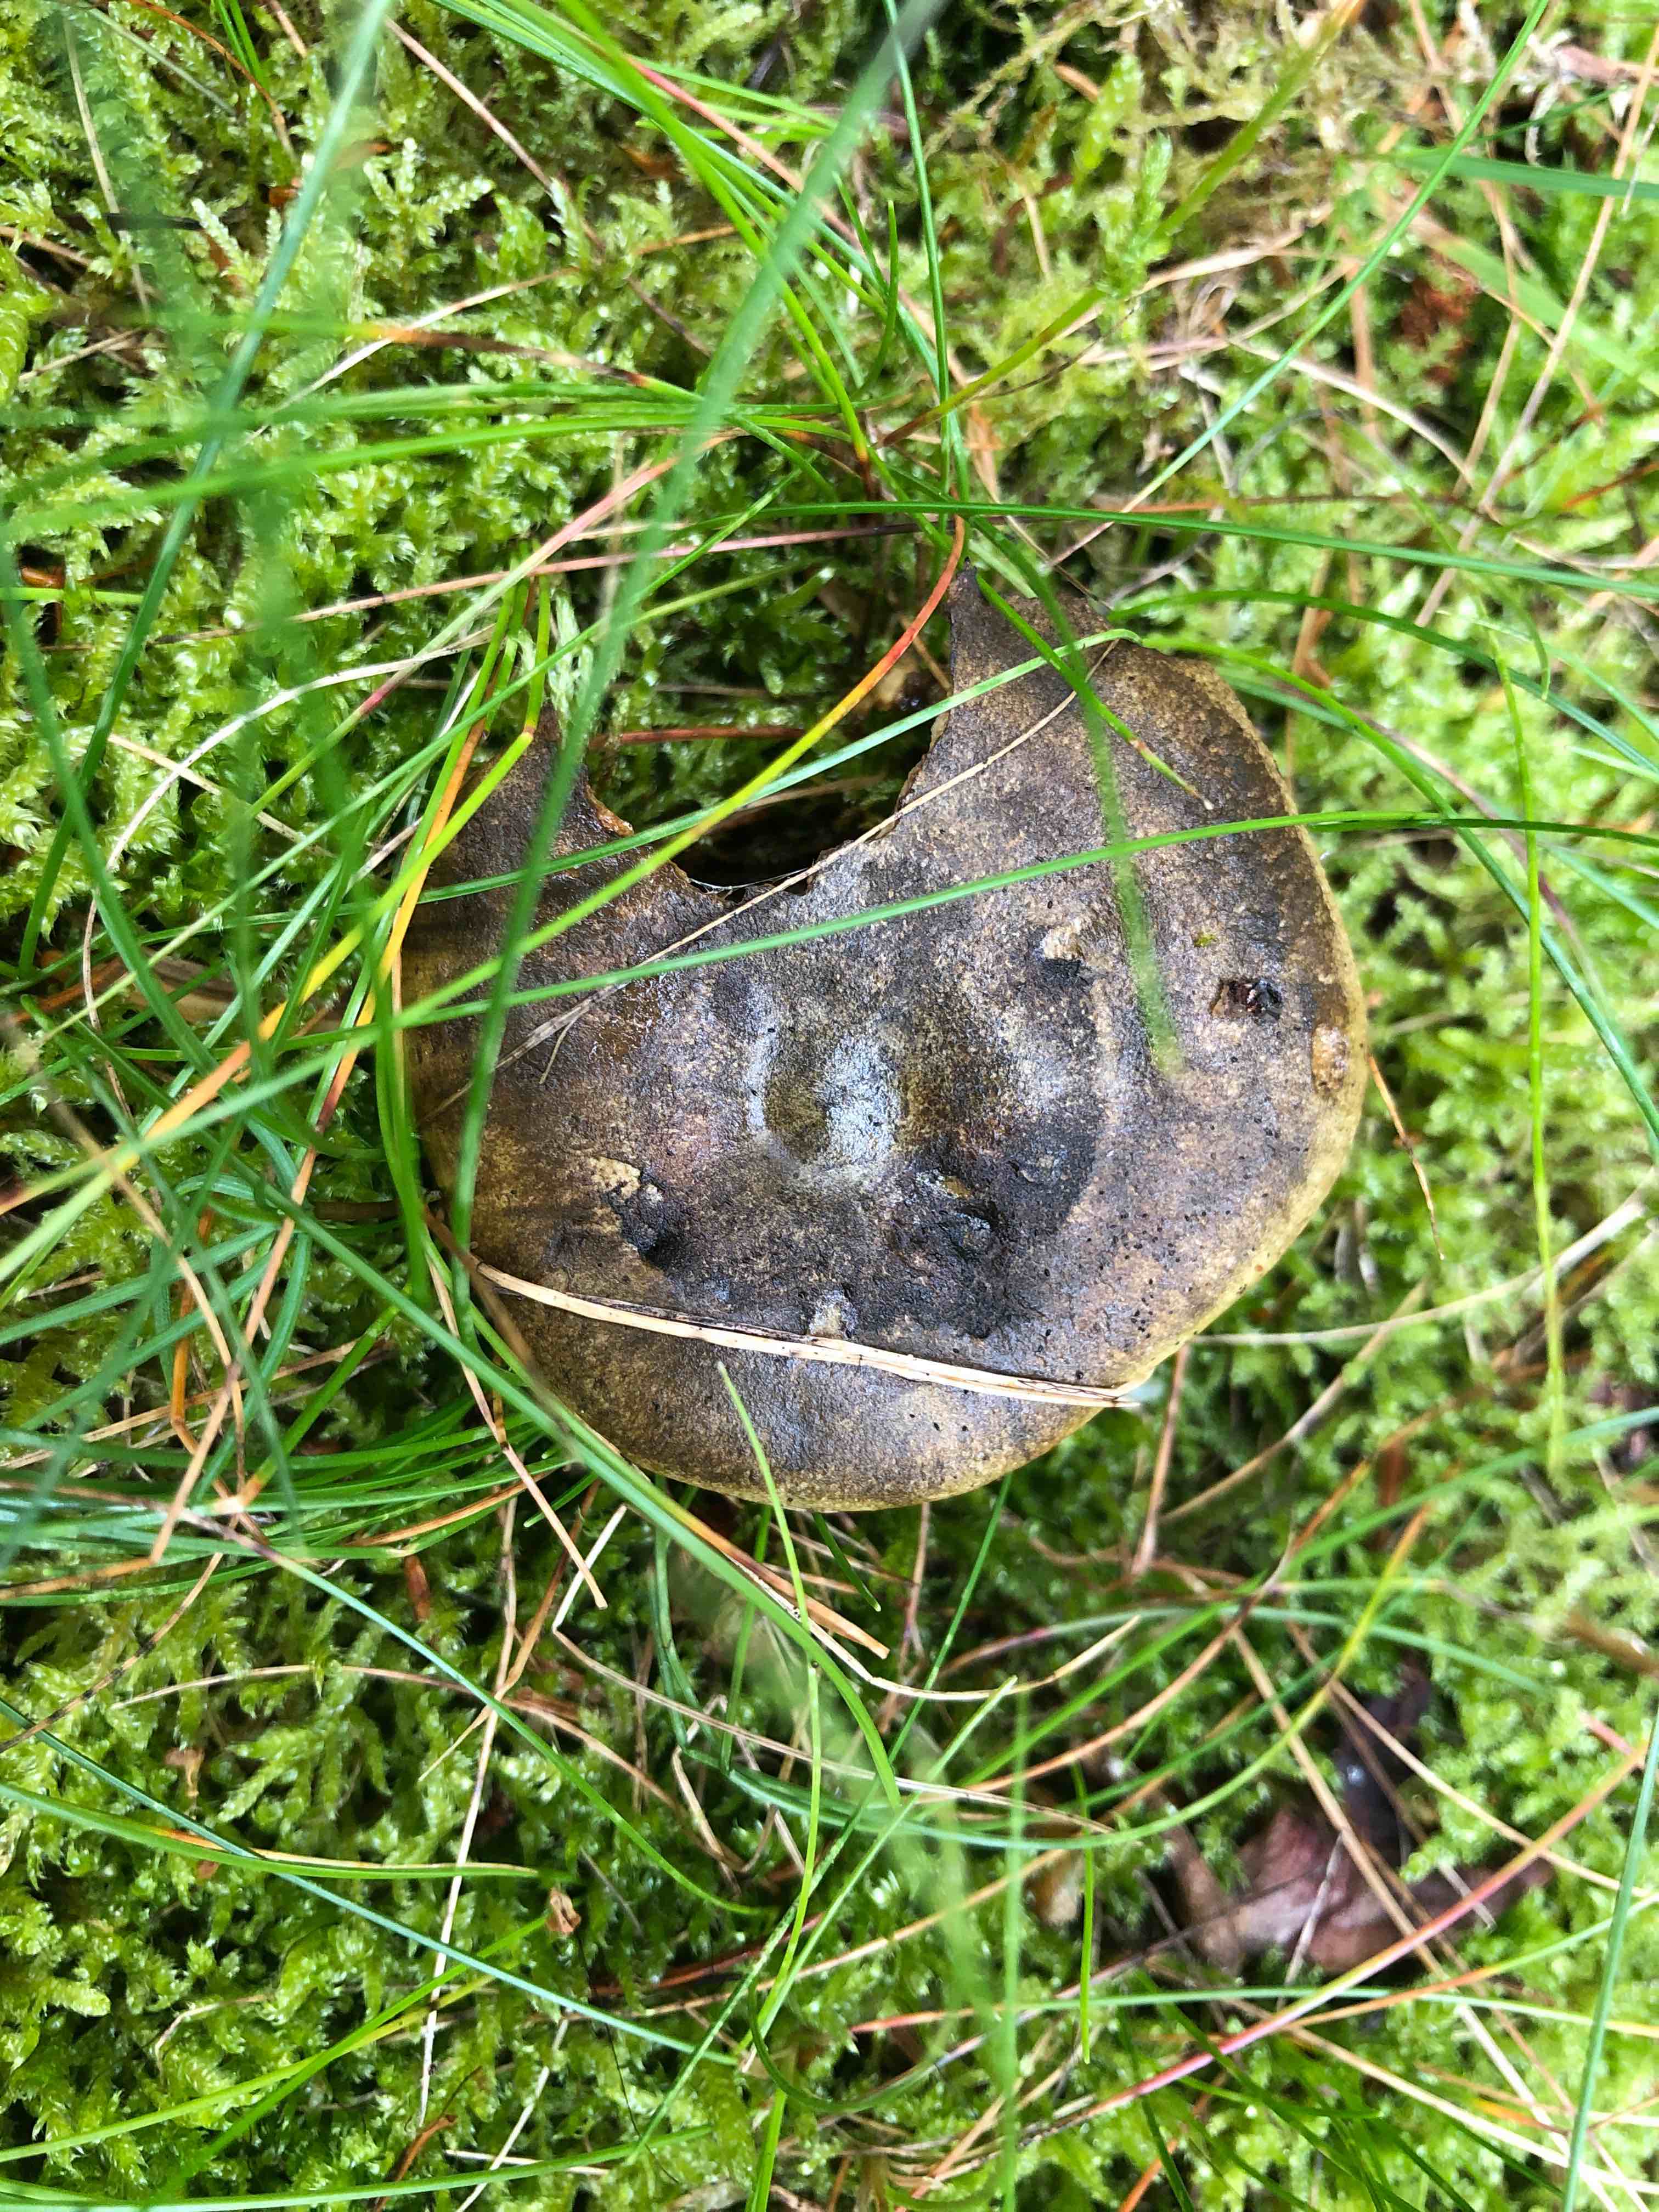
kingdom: Fungi
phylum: Basidiomycota
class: Agaricomycetes
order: Russulales
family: Russulaceae
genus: Lactarius
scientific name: Lactarius necator
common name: manddraber-mælkehat
